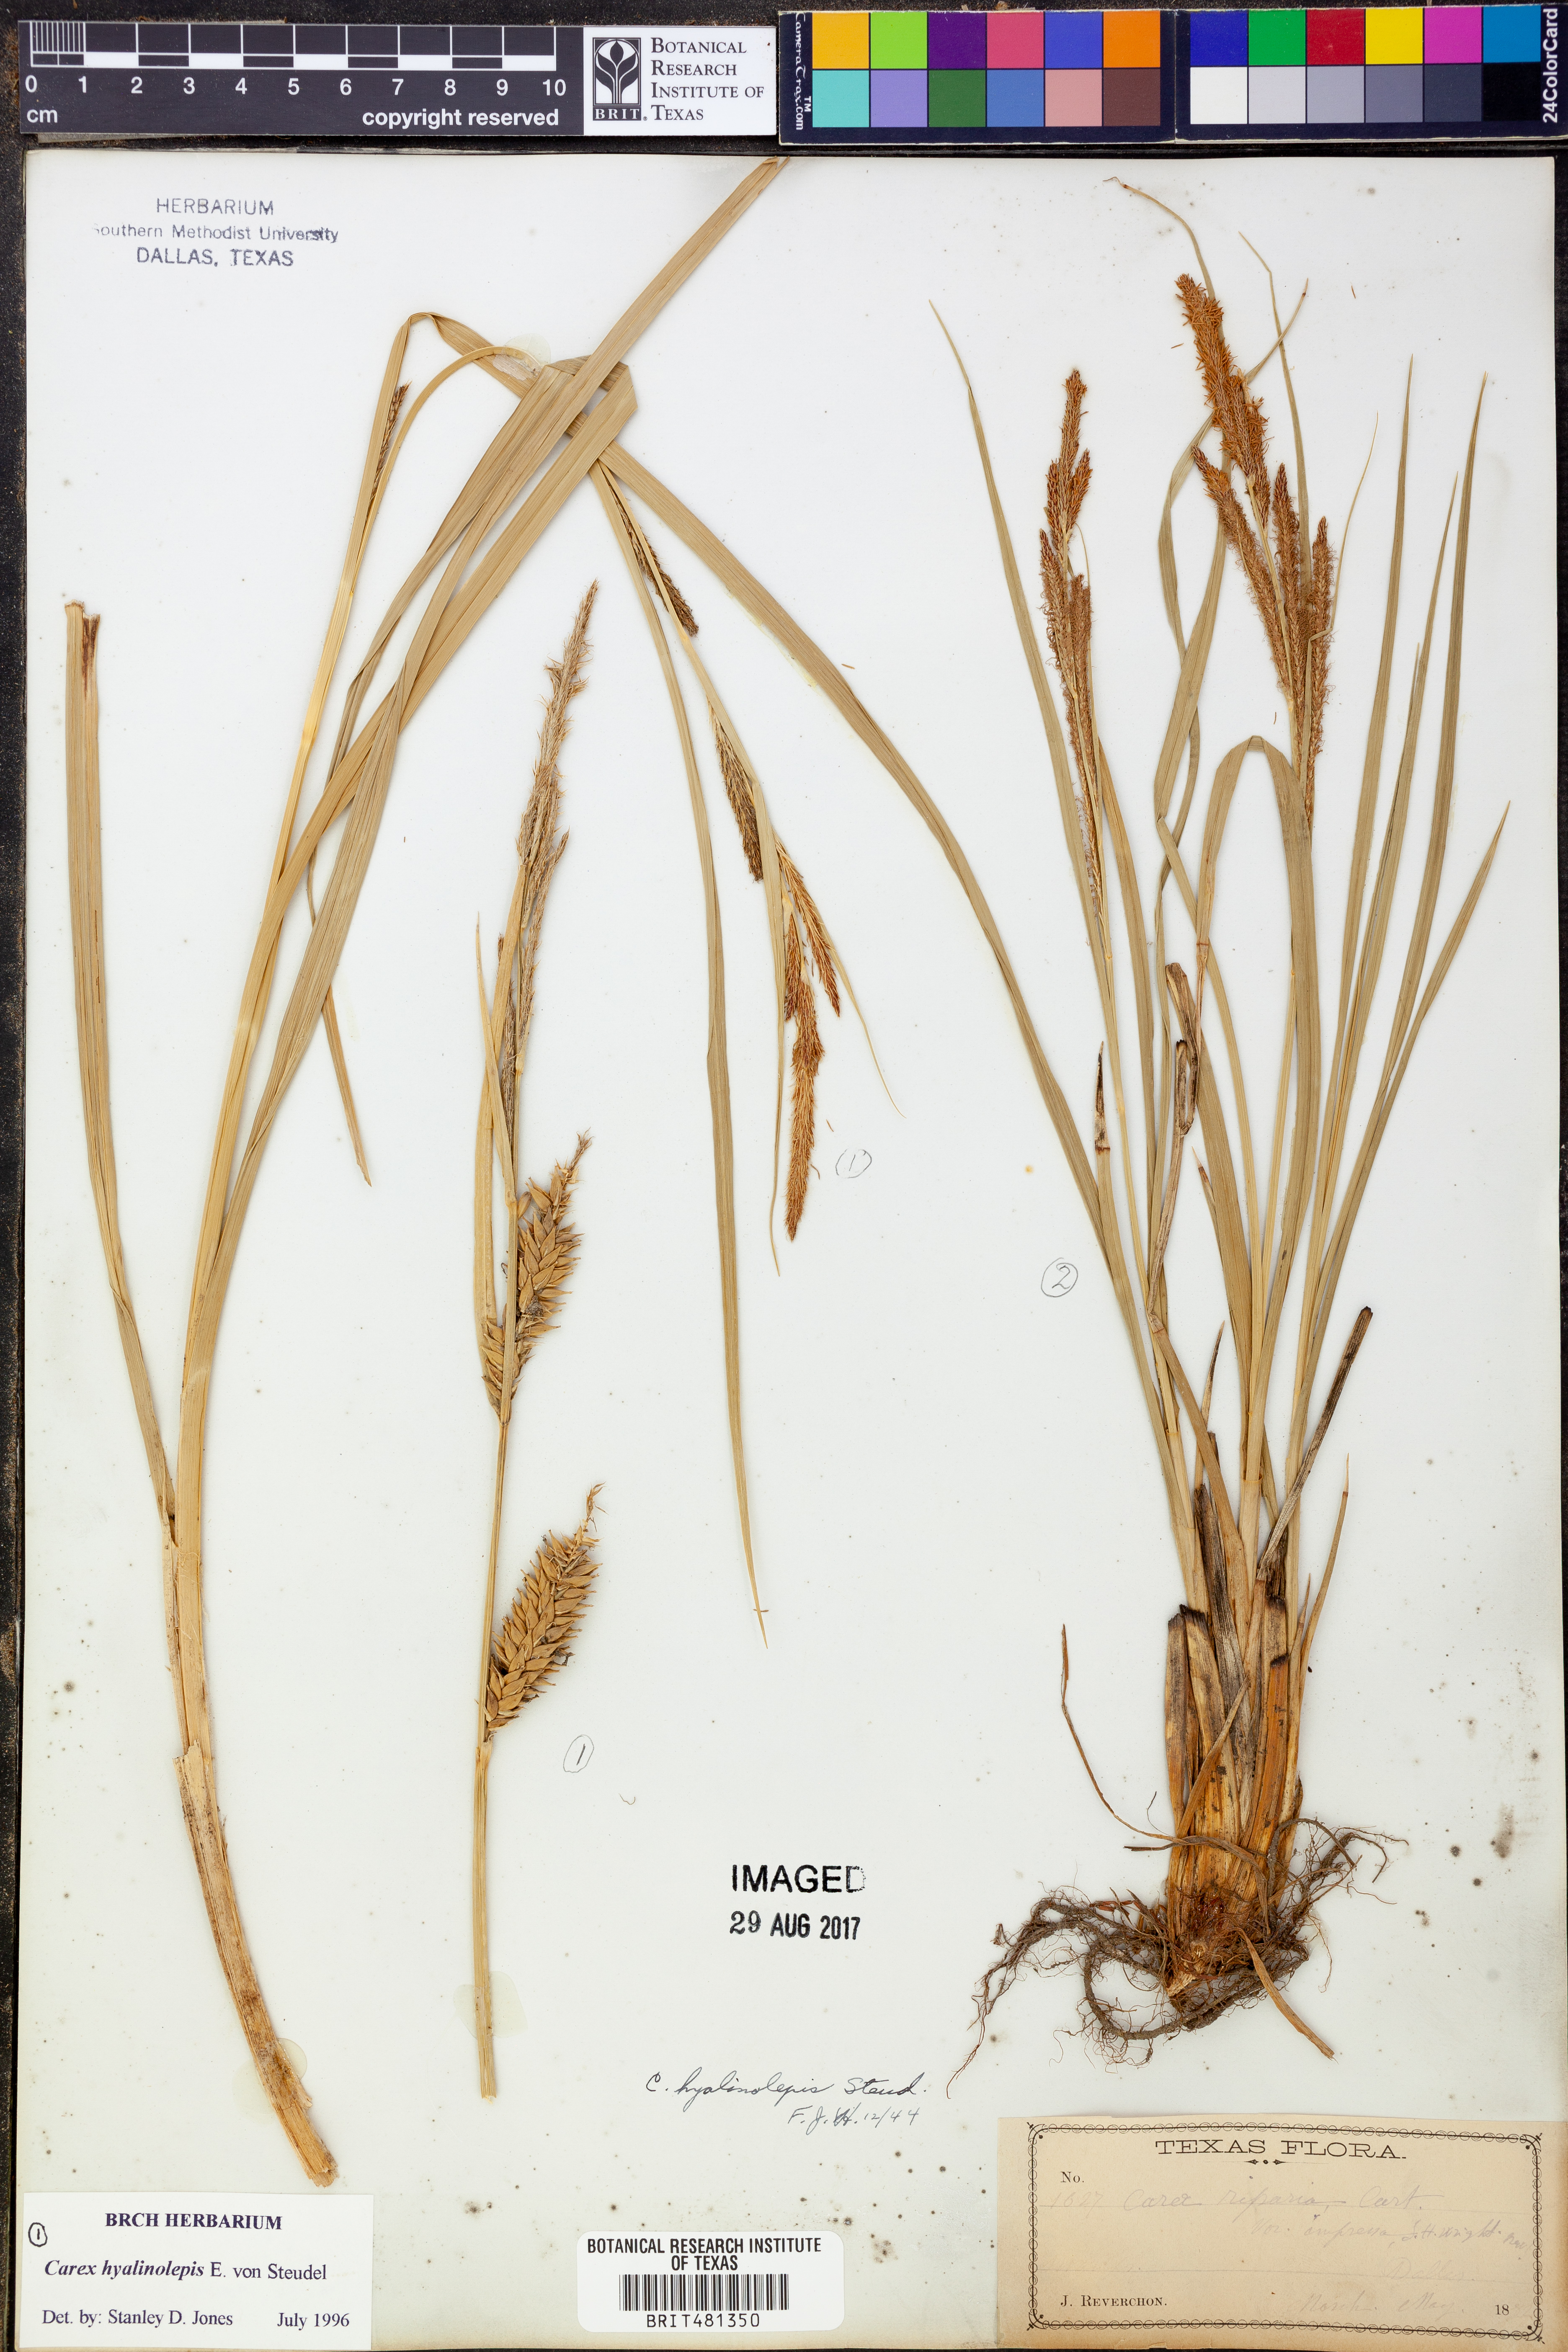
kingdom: Plantae
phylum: Tracheophyta
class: Liliopsida
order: Poales
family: Cyperaceae
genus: Carex
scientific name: Carex hyalinolepis
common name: Shoreline sedge
